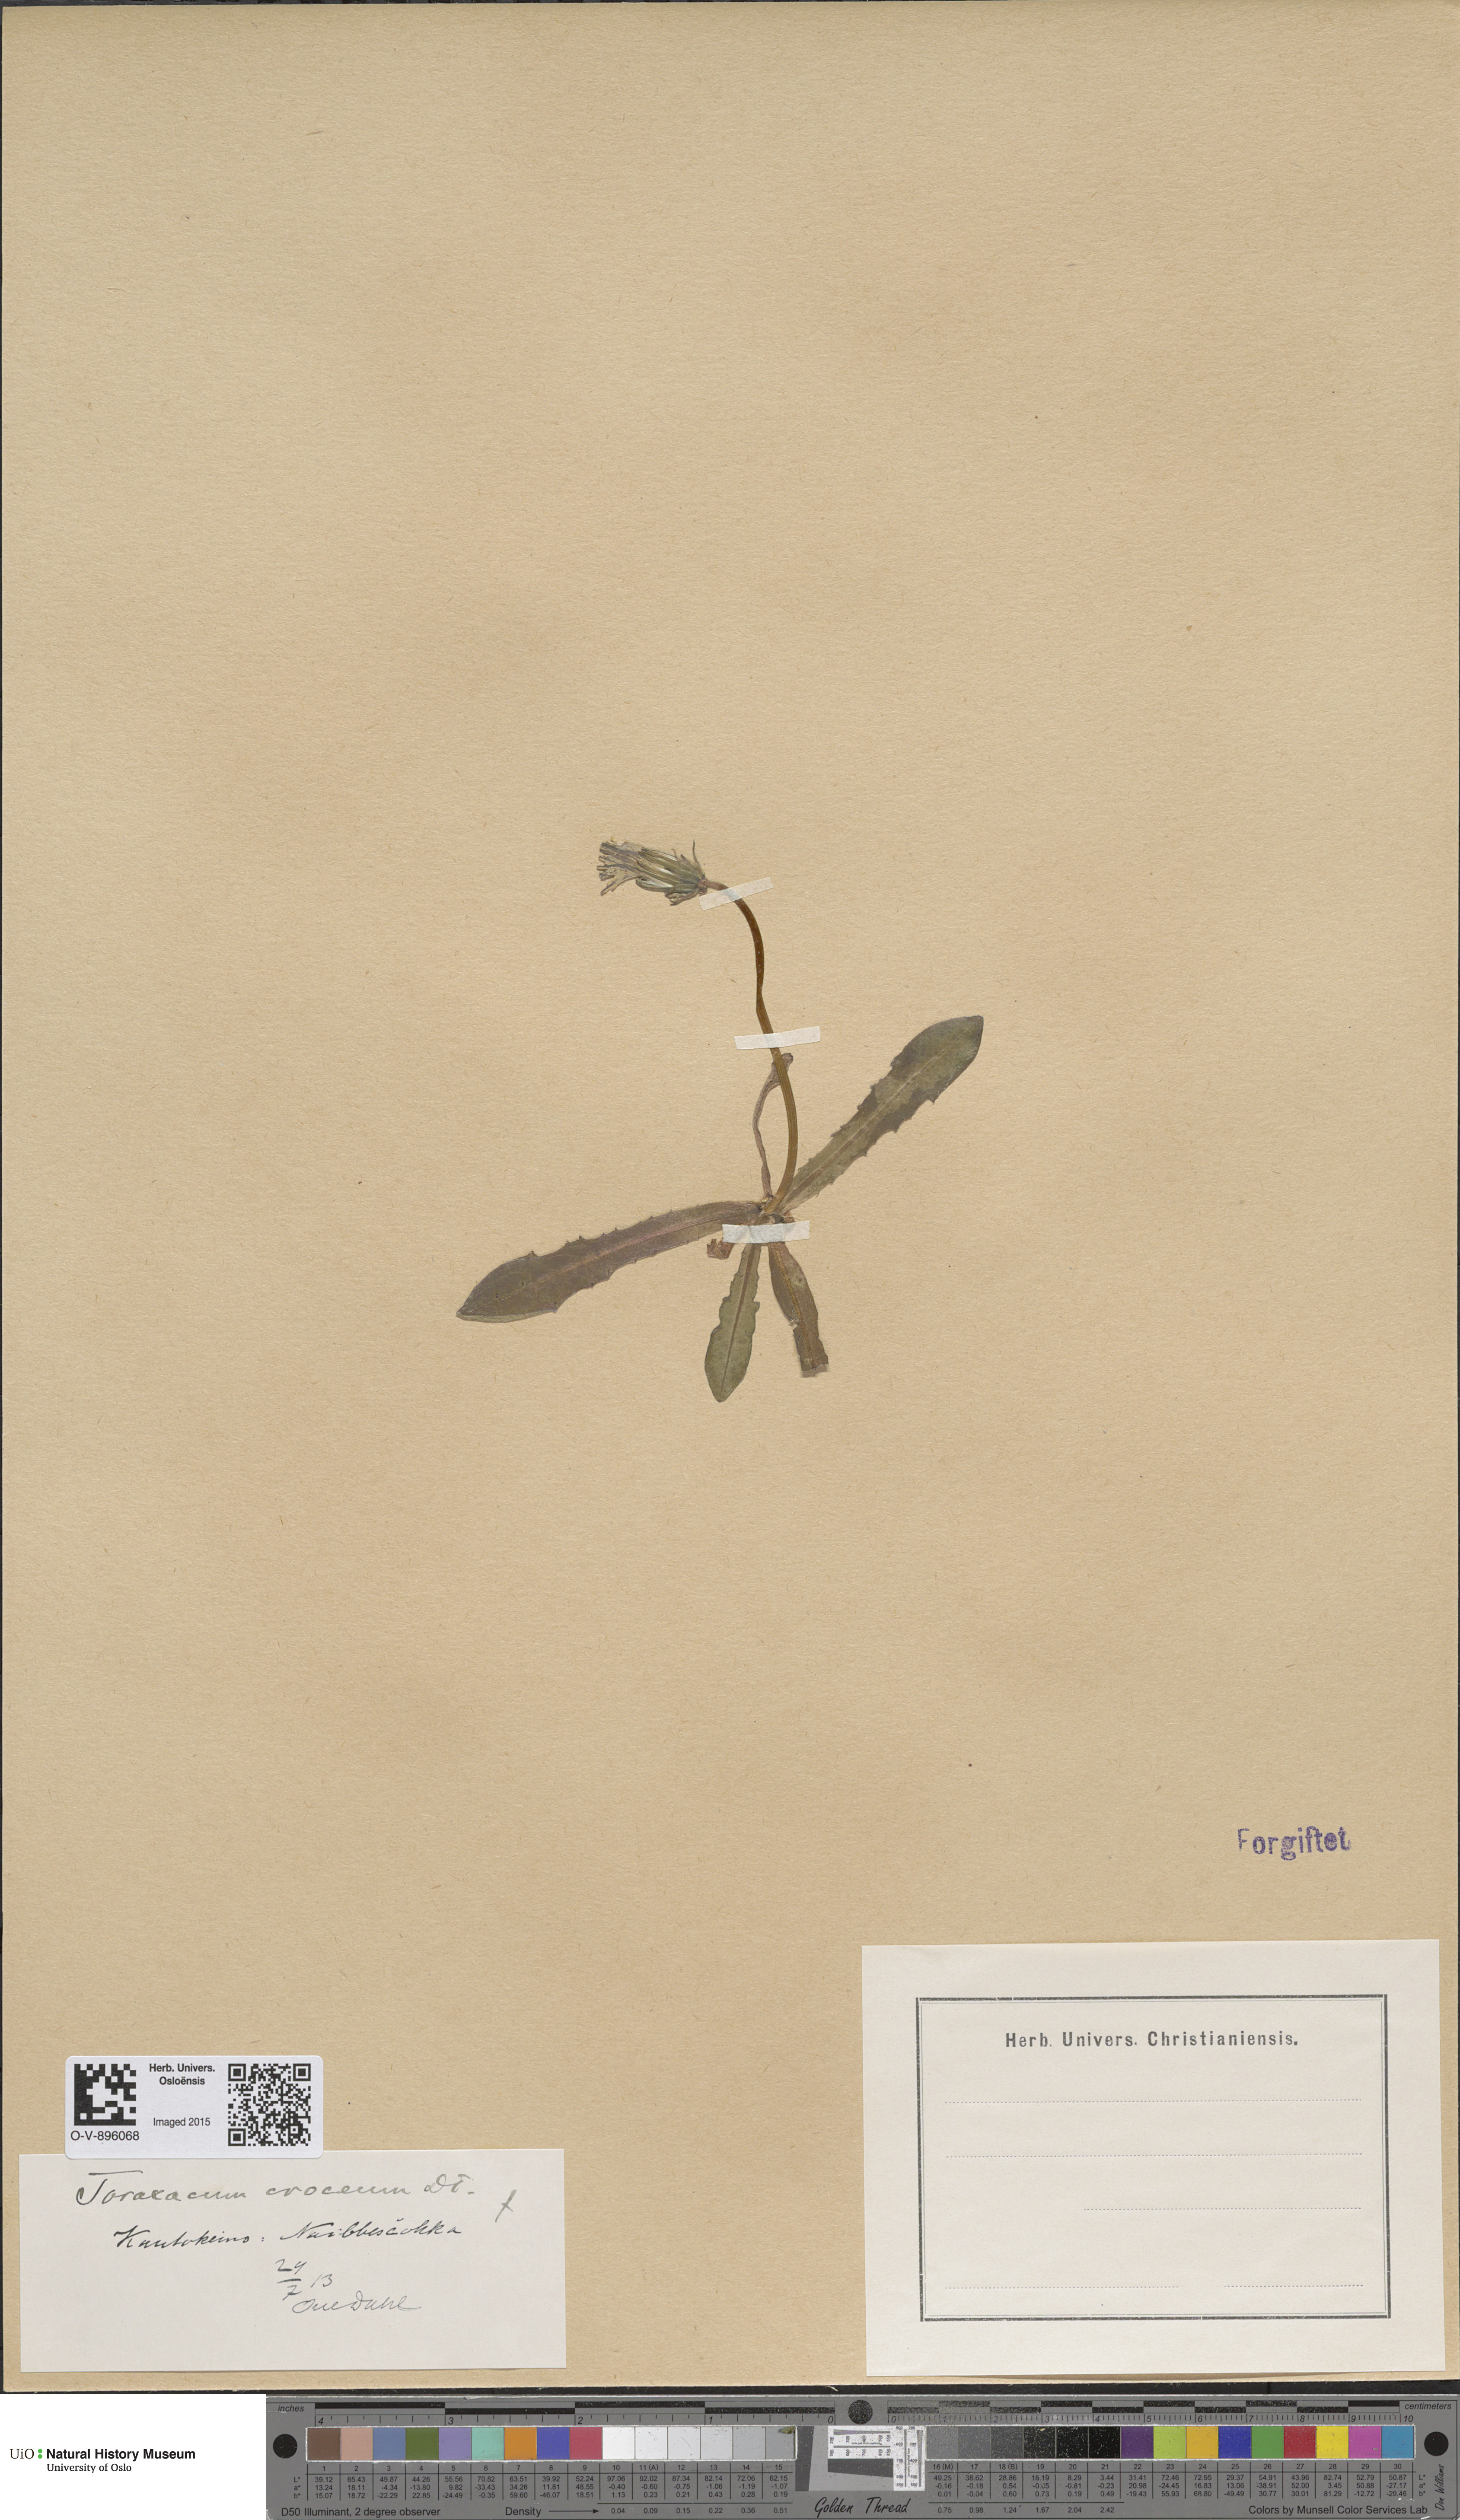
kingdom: Plantae
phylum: Tracheophyta
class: Magnoliopsida
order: Asterales
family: Asteraceae
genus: Taraxacum
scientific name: Taraxacum croceum
